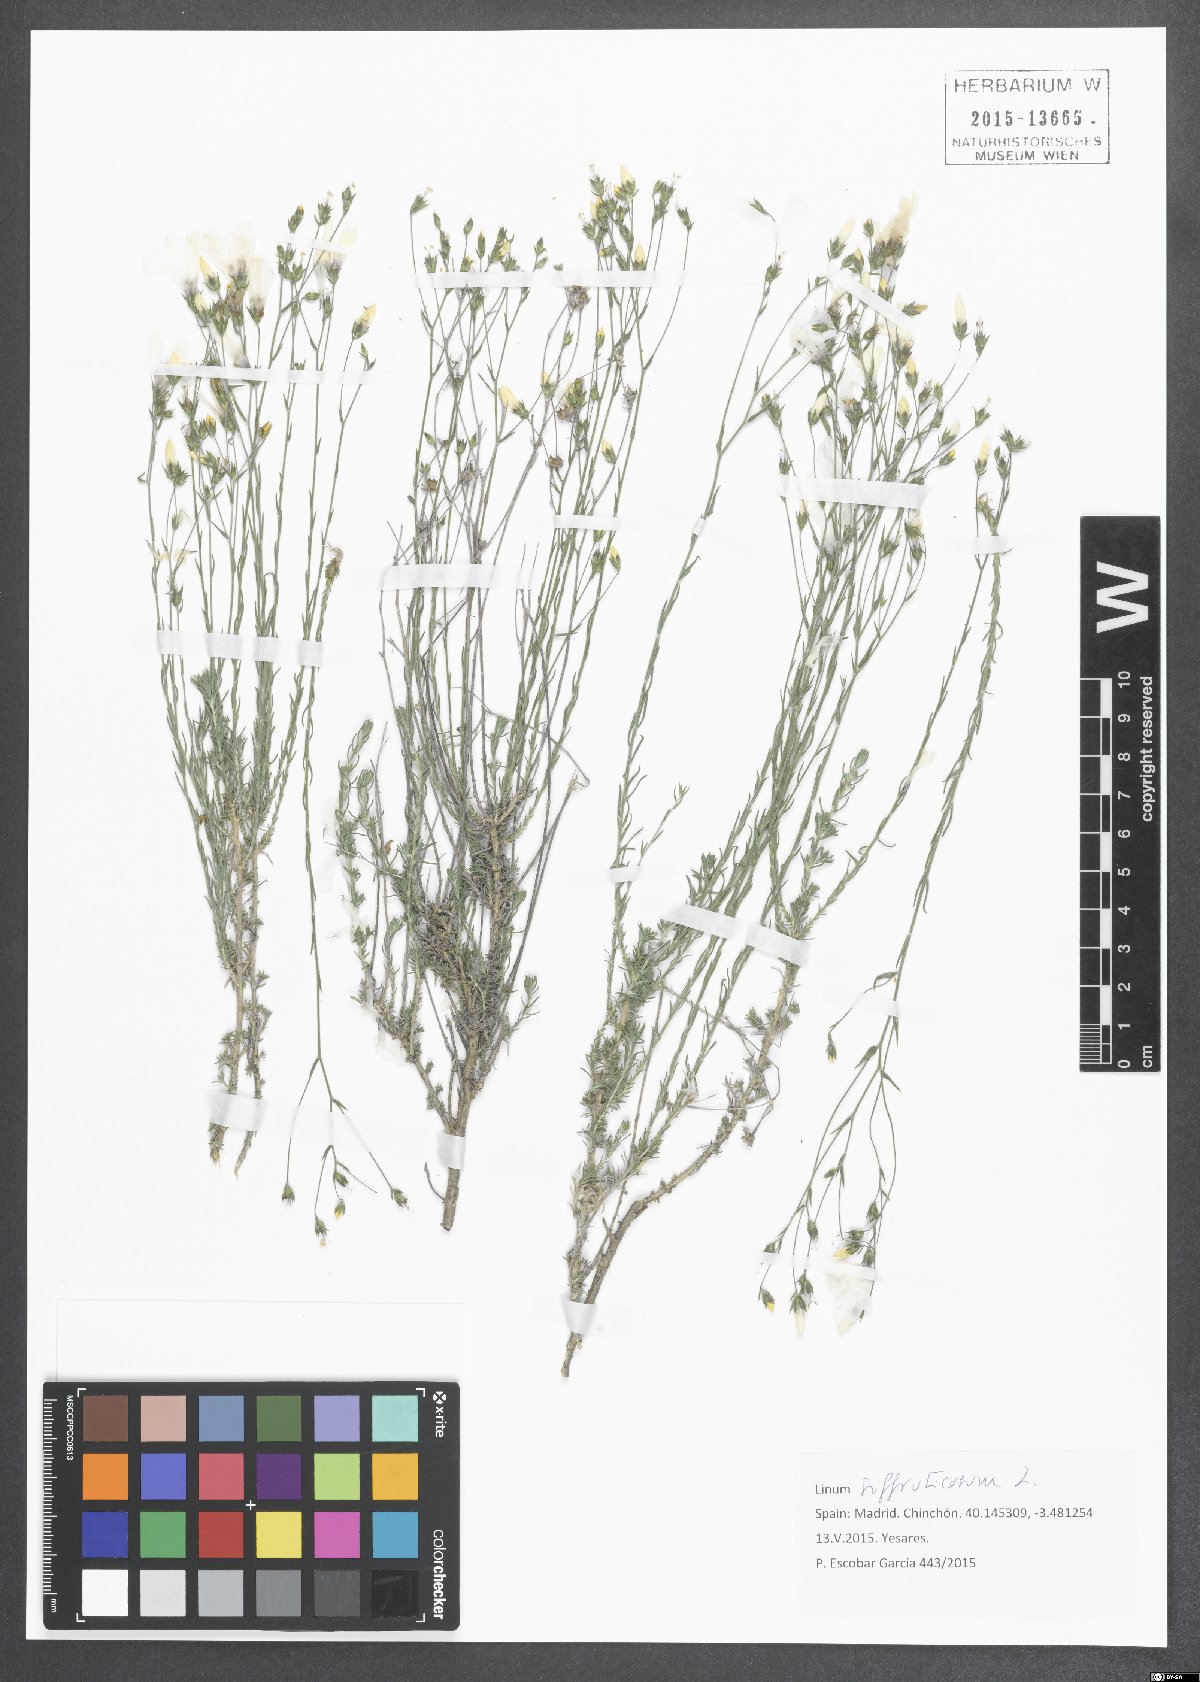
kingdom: Plantae
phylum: Tracheophyta
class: Magnoliopsida
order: Malpighiales
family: Linaceae
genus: Linum
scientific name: Linum suffruticosum
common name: White flax
